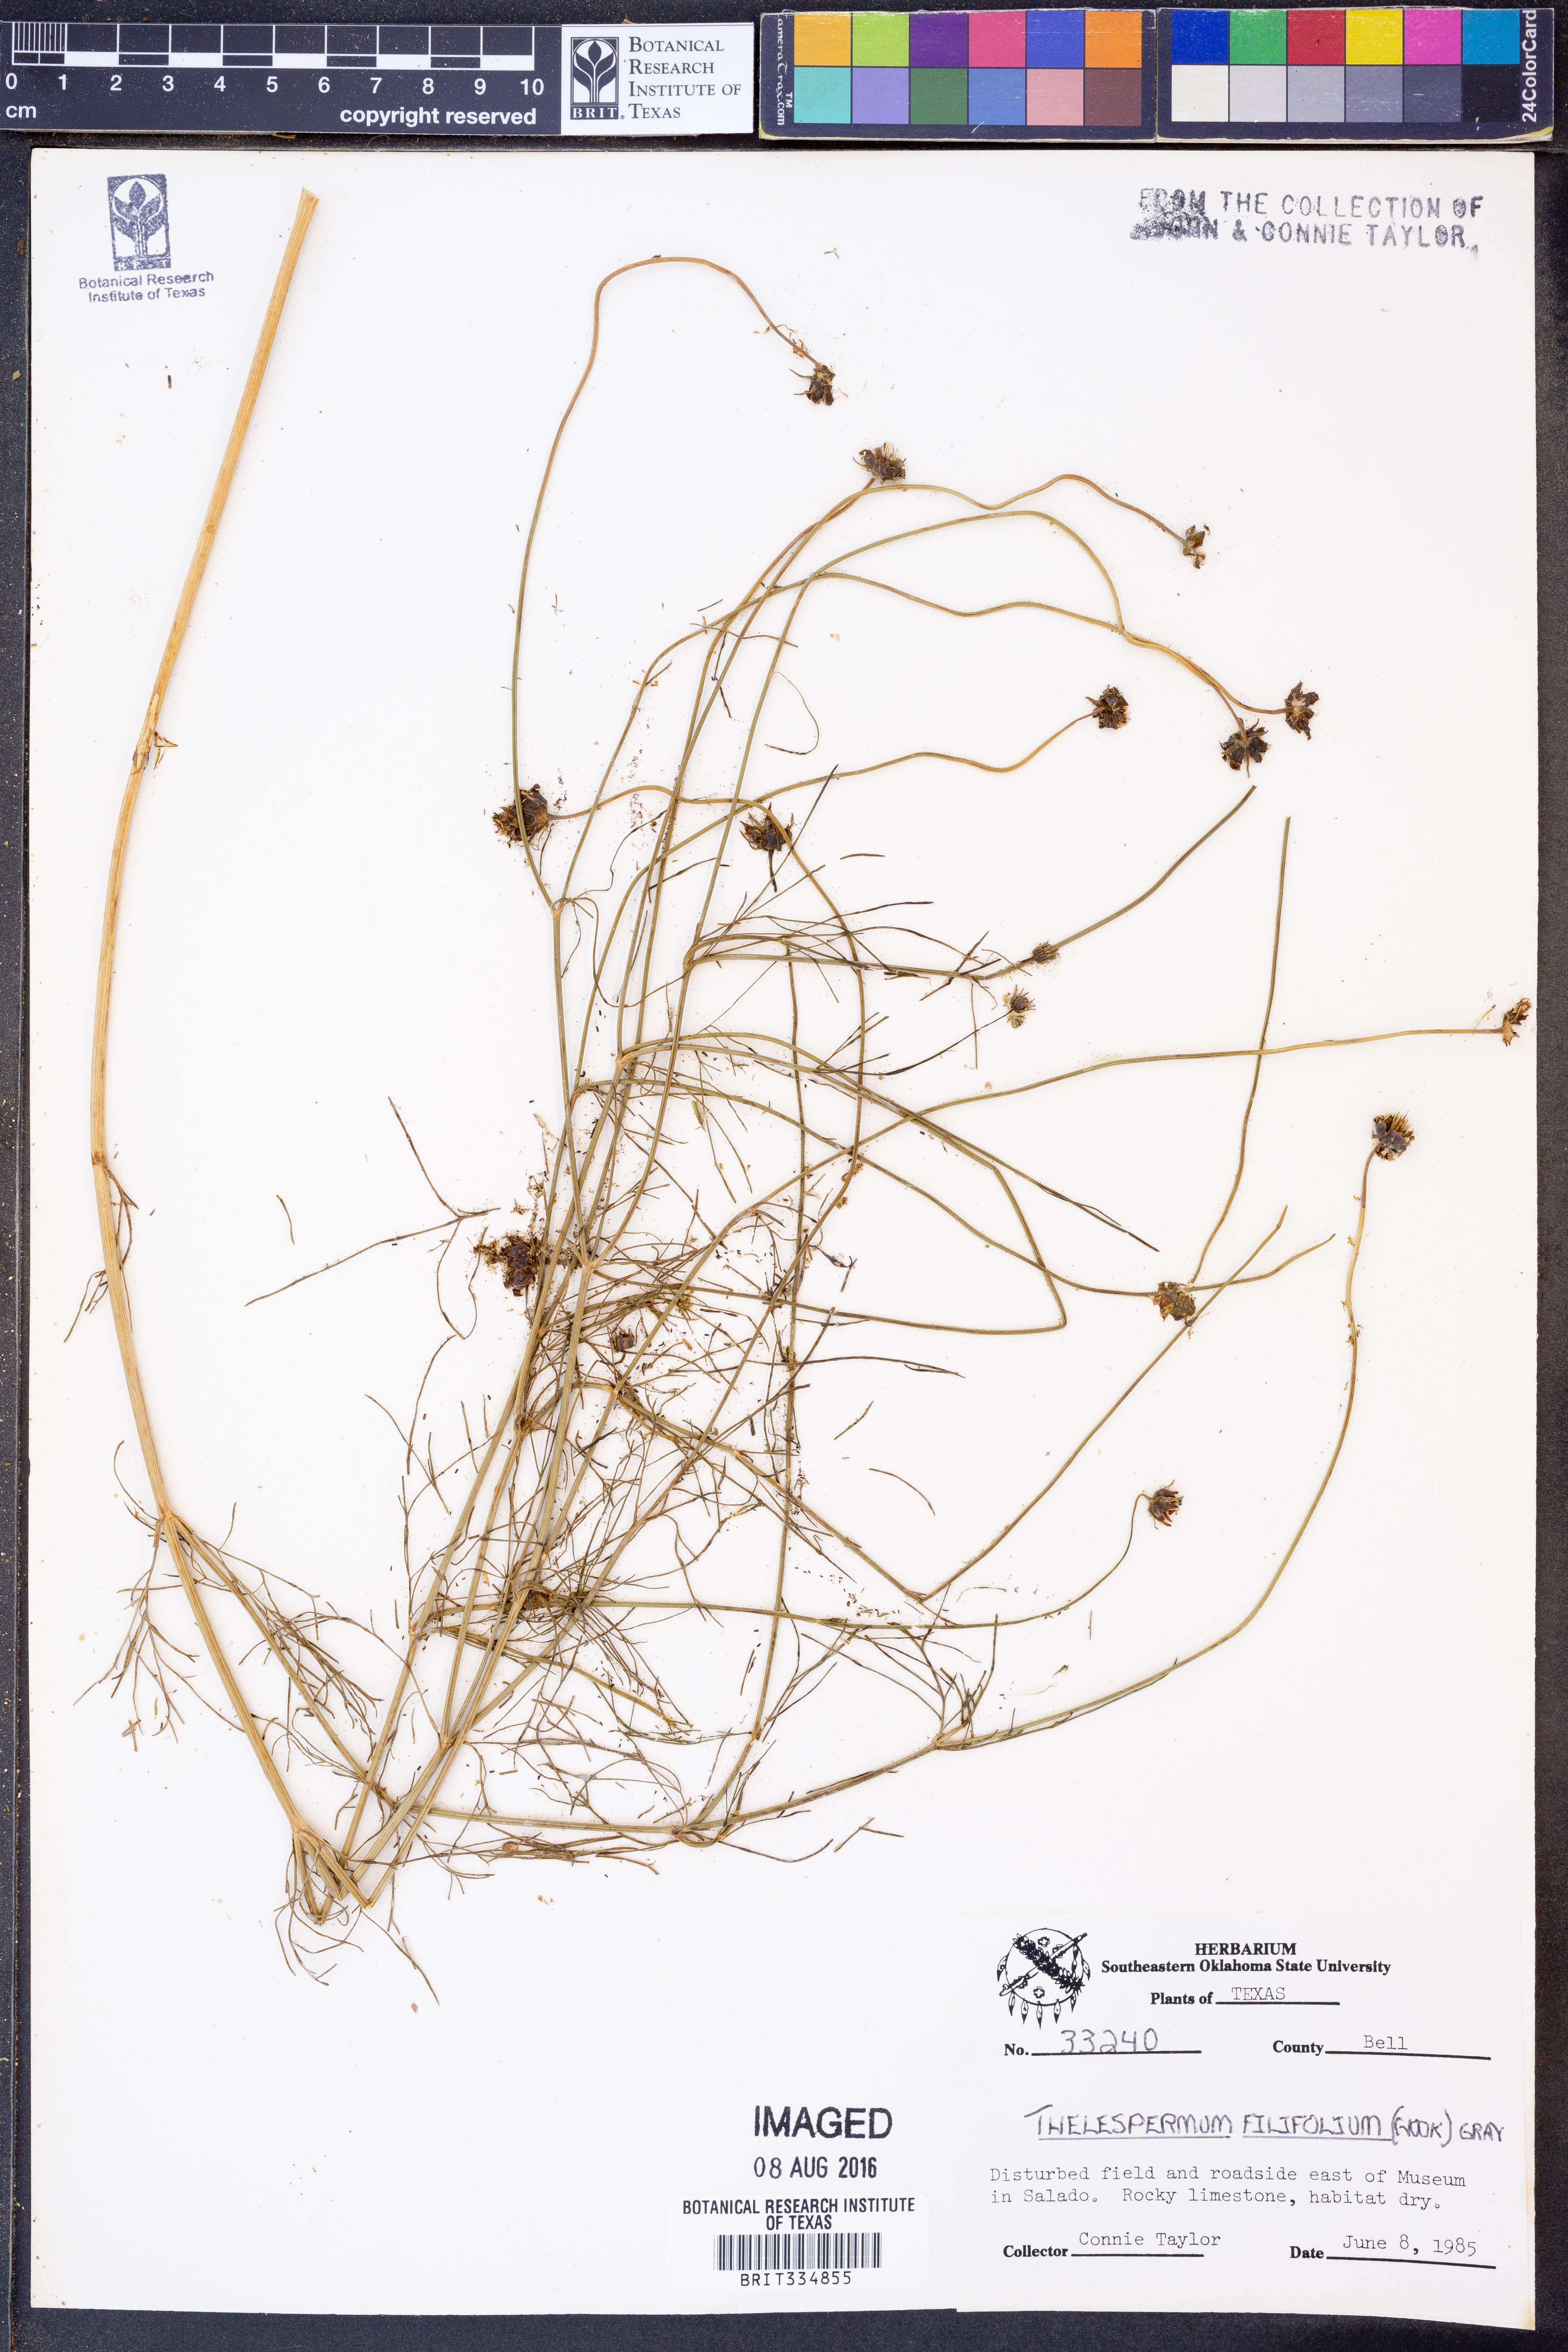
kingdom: Plantae
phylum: Tracheophyta
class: Magnoliopsida
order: Asterales
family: Asteraceae
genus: Thelesperma
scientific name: Thelesperma filifolium
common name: Stiff greenthread
